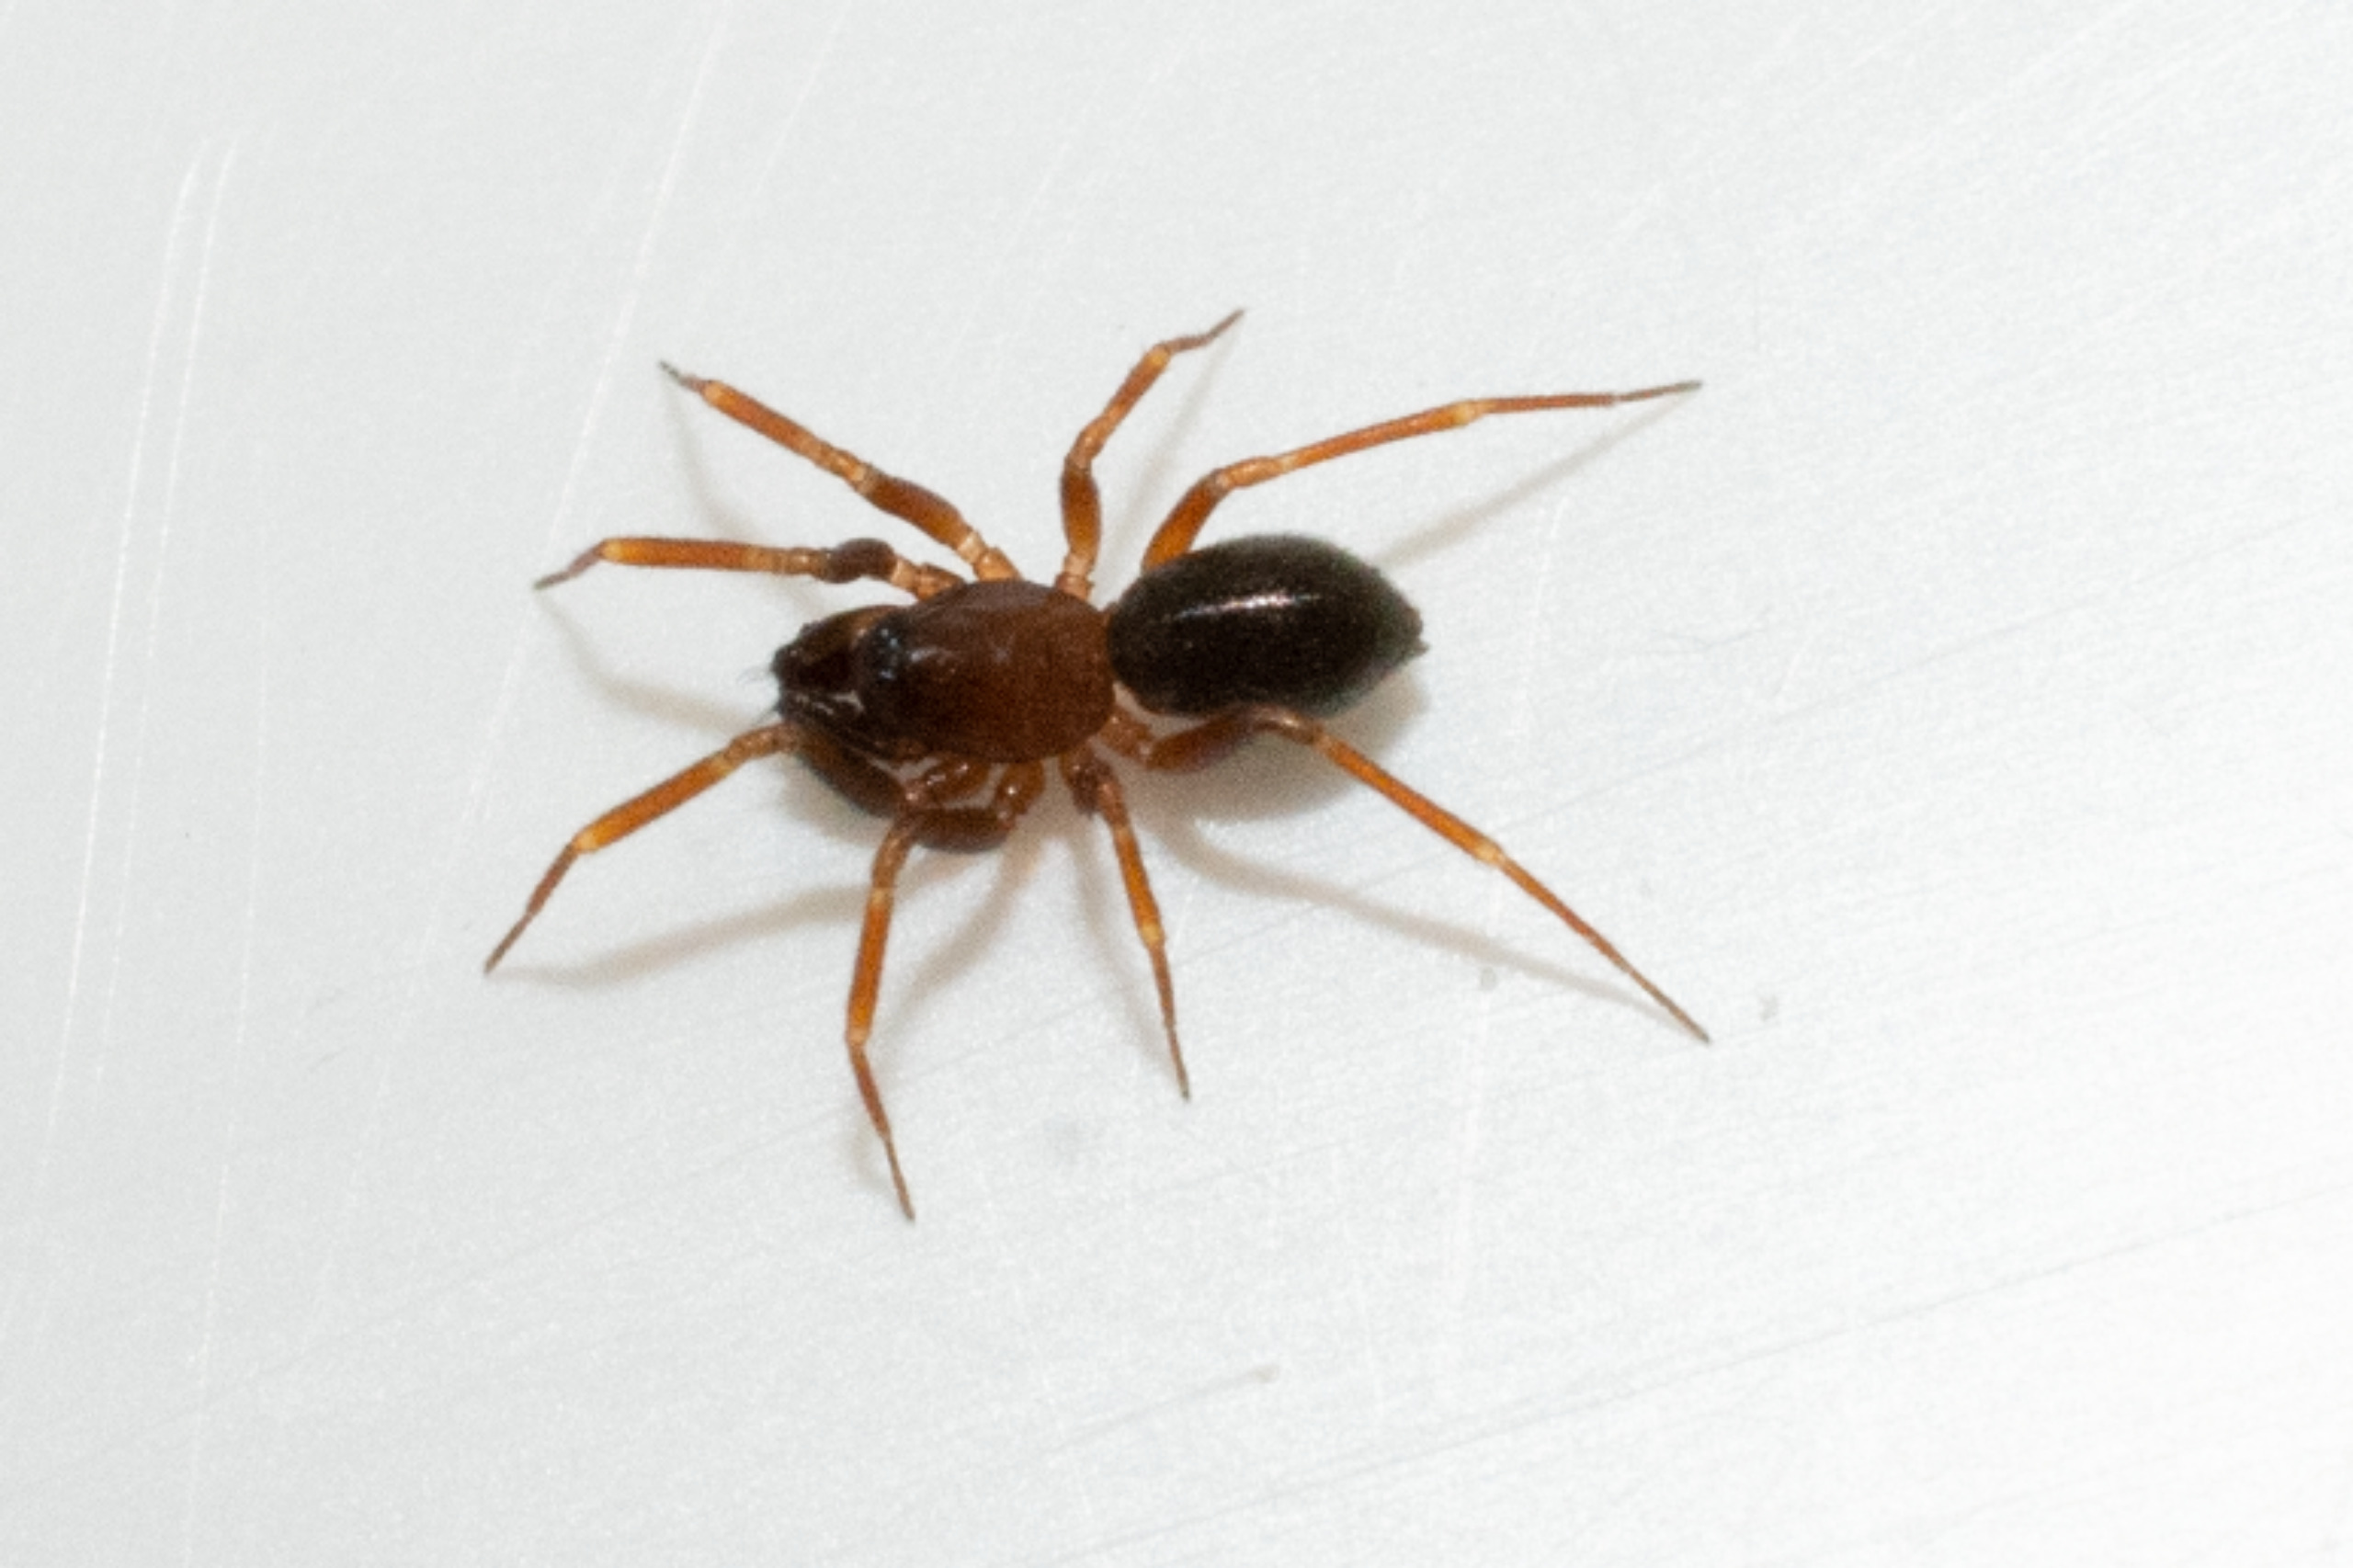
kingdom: Animalia
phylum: Arthropoda
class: Arachnida
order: Araneae
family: Linyphiidae
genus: Microneta
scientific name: Microneta viaria
